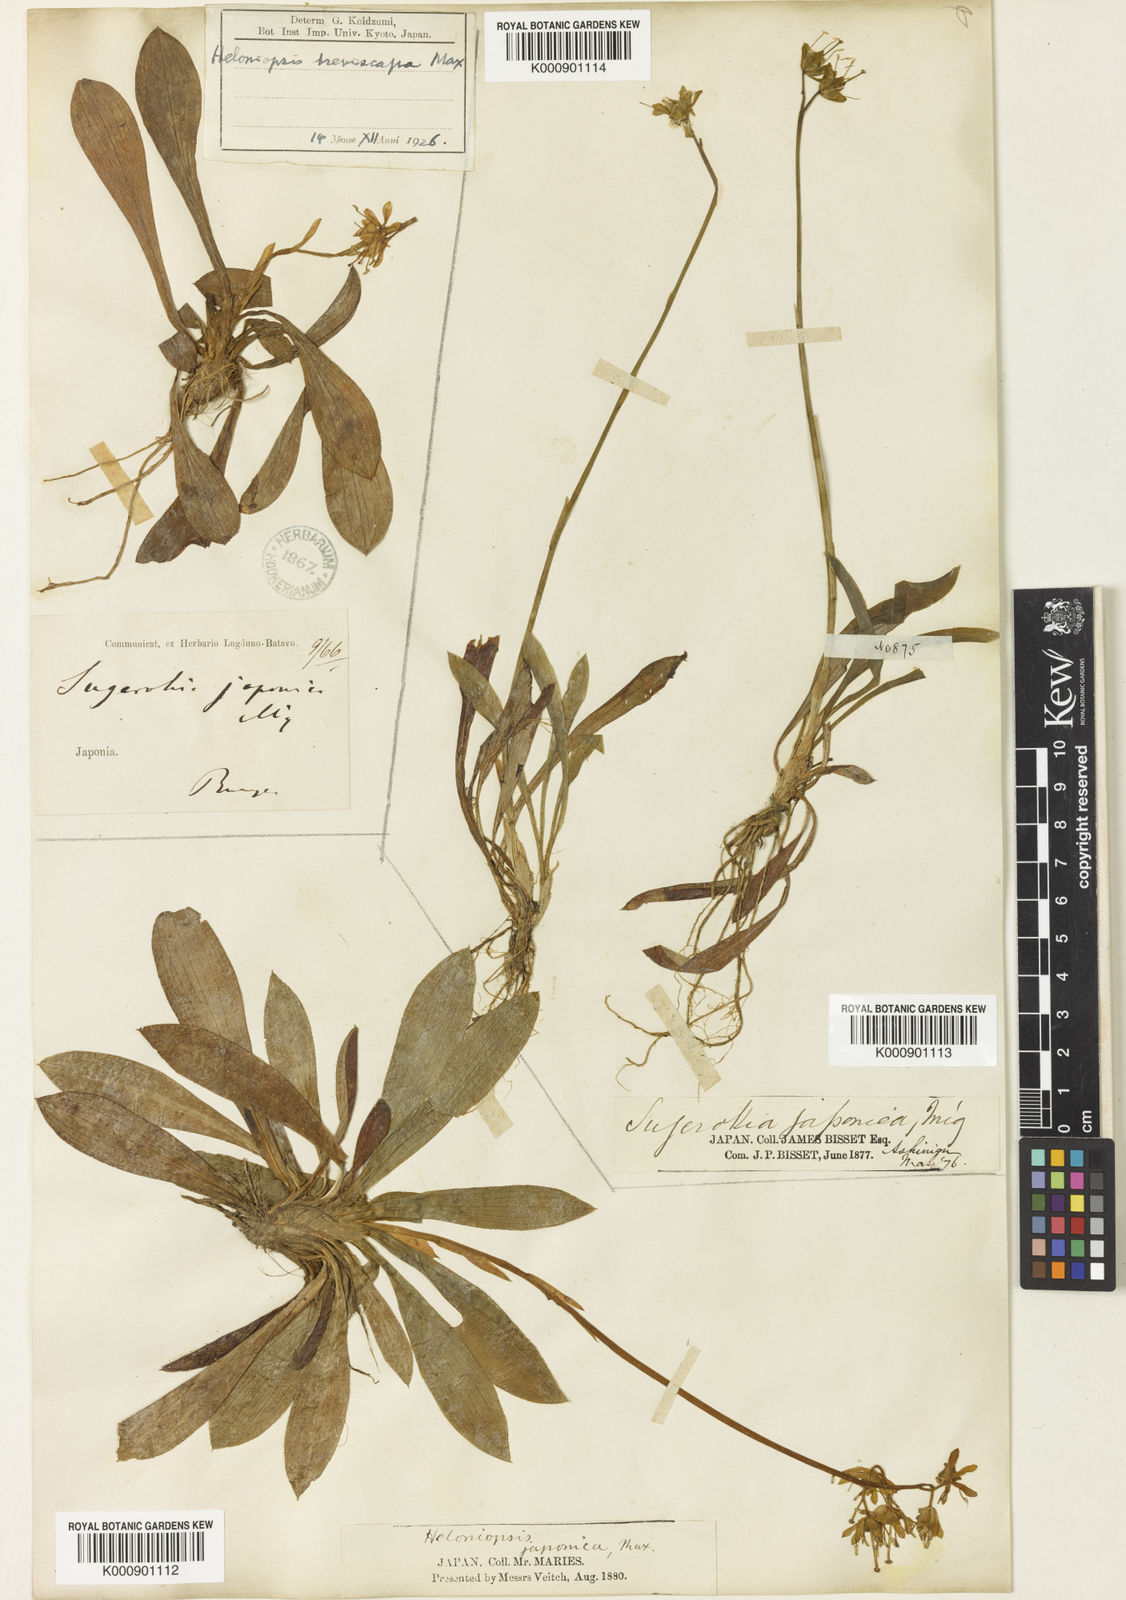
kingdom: Plantae
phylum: Tracheophyta
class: Liliopsida
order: Liliales
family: Melanthiaceae
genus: Helonias
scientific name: Helonias
